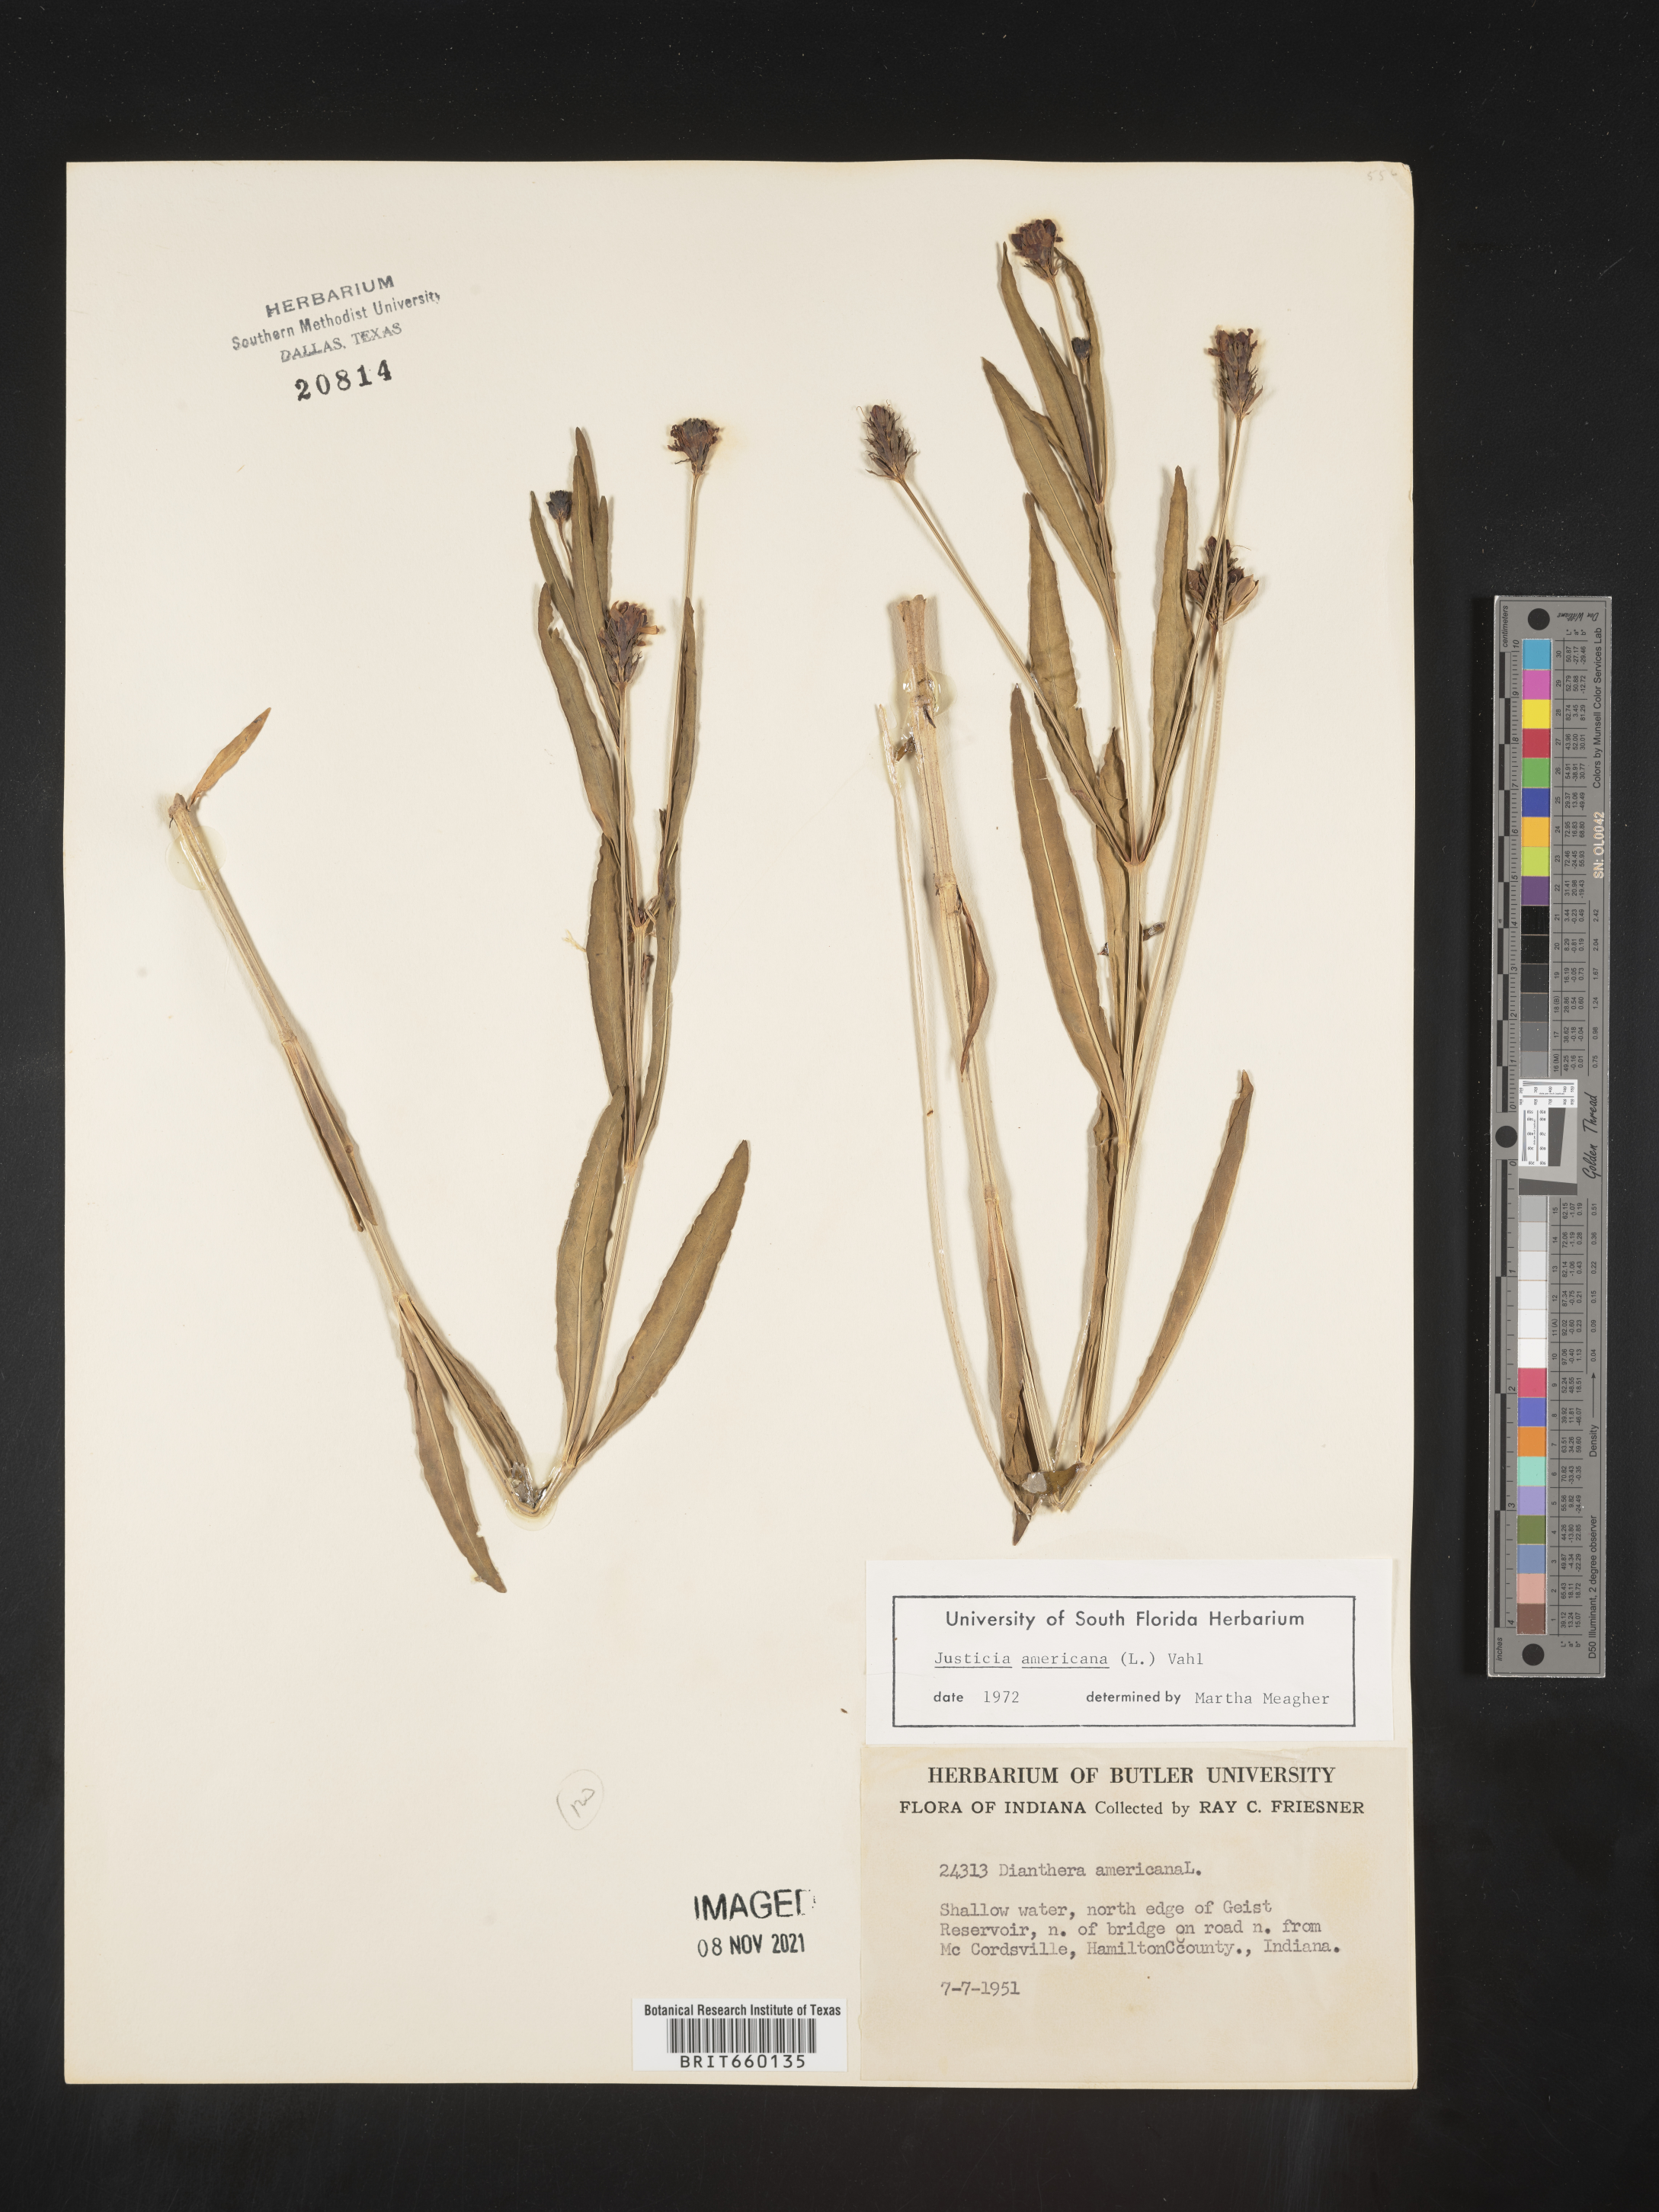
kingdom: Plantae
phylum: Tracheophyta
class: Magnoliopsida
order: Lamiales
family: Acanthaceae
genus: Dianthera
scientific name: Dianthera americana
